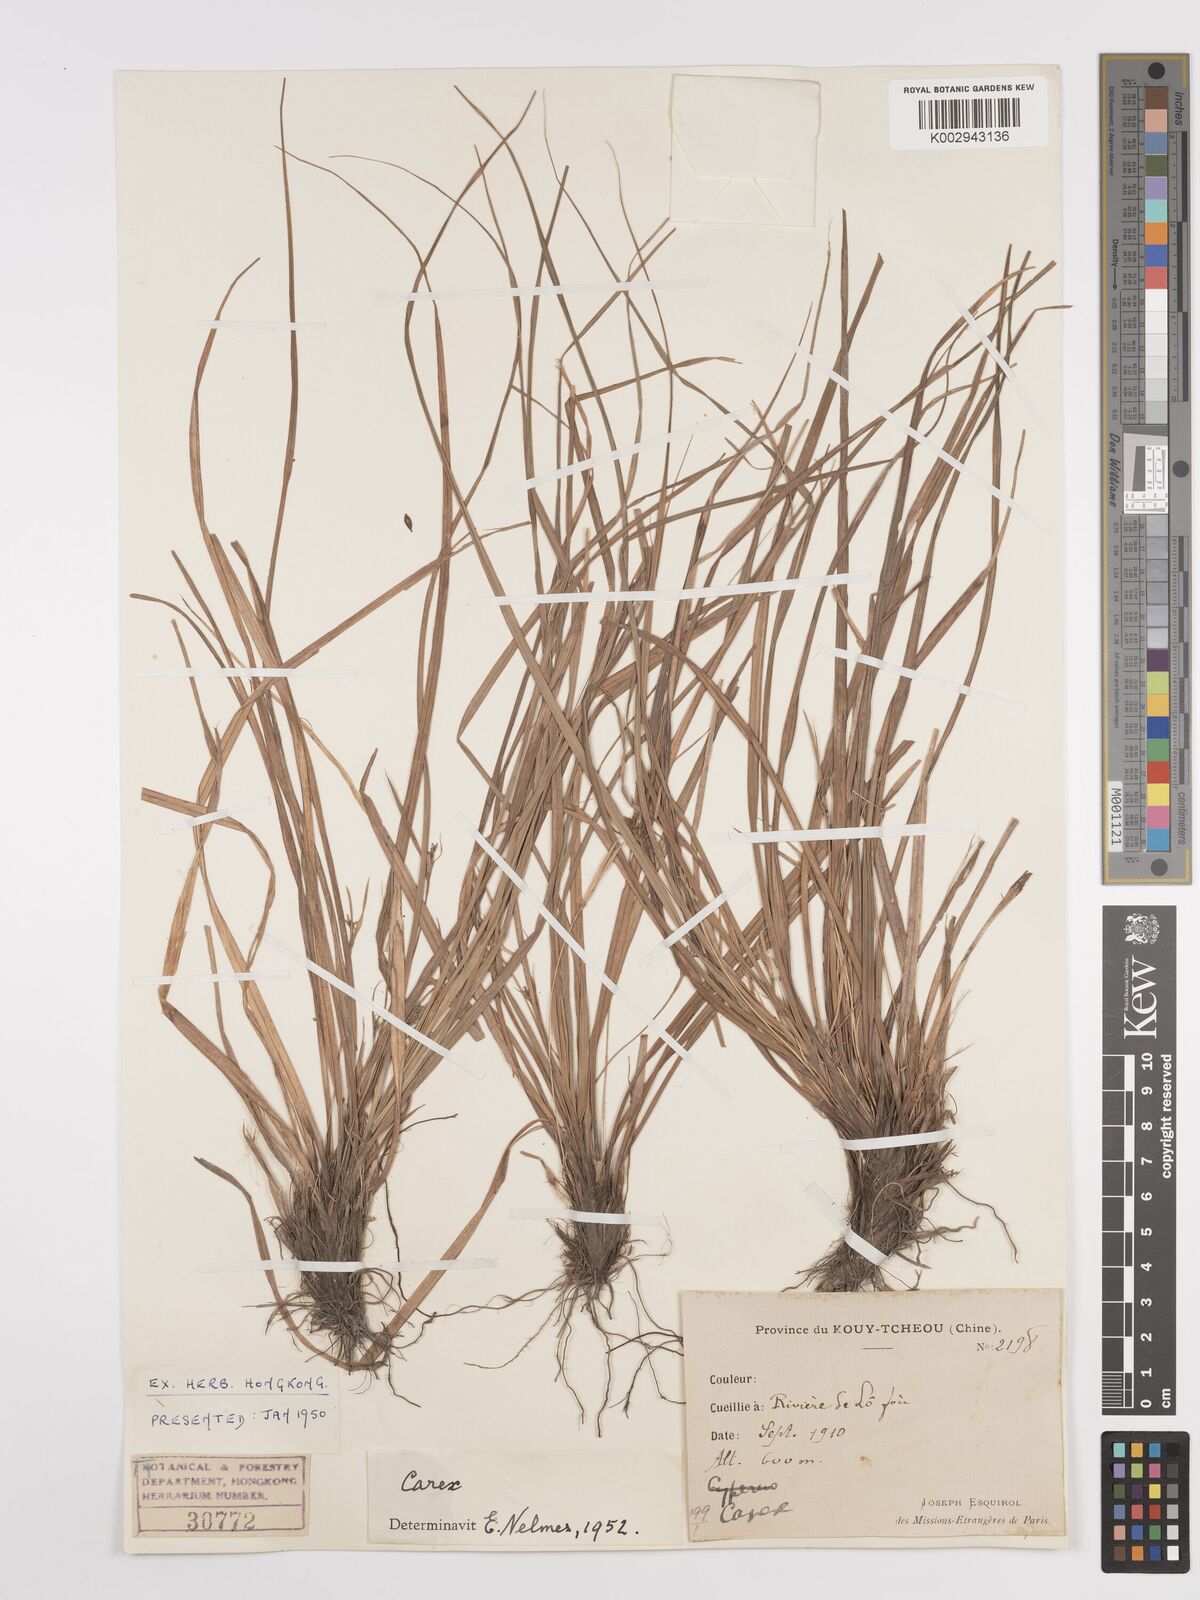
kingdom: Plantae
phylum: Tracheophyta
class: Liliopsida
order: Poales
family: Cyperaceae
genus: Carex
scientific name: Carex
